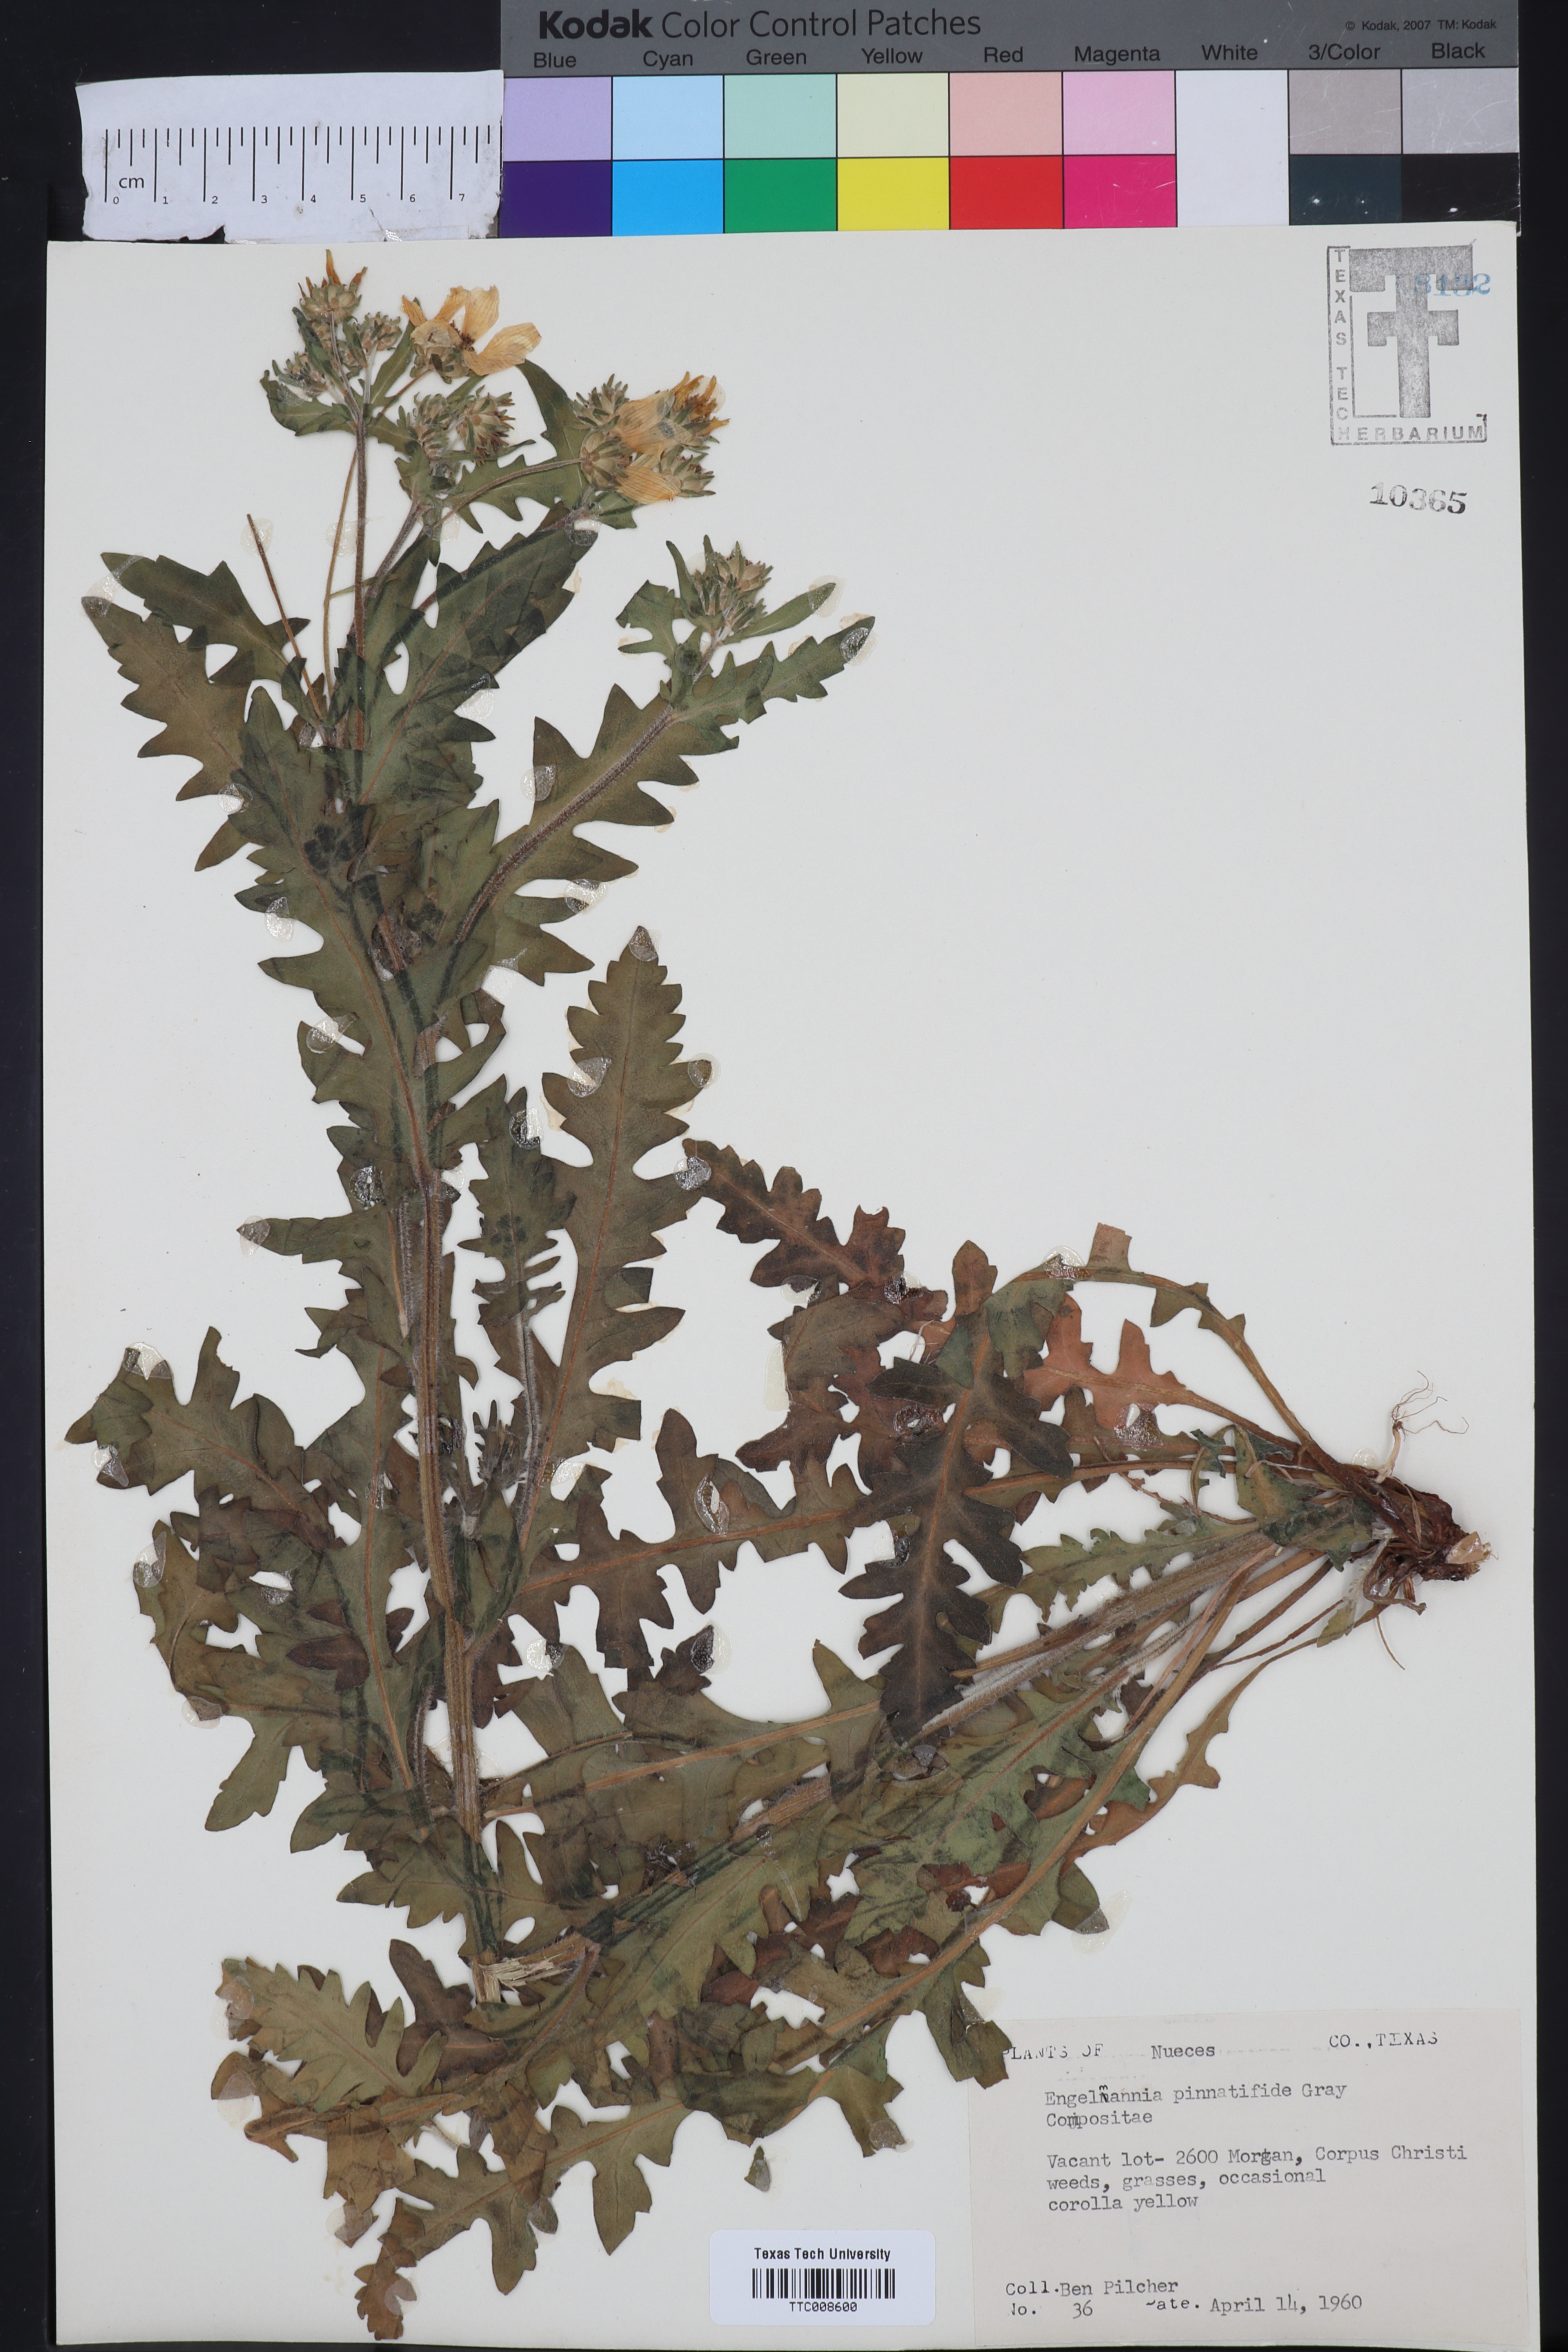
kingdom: Plantae
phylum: Tracheophyta
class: Magnoliopsida
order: Asterales
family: Asteraceae
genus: Engelmannia
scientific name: Engelmannia peristenia
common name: Engelmann's daisy
